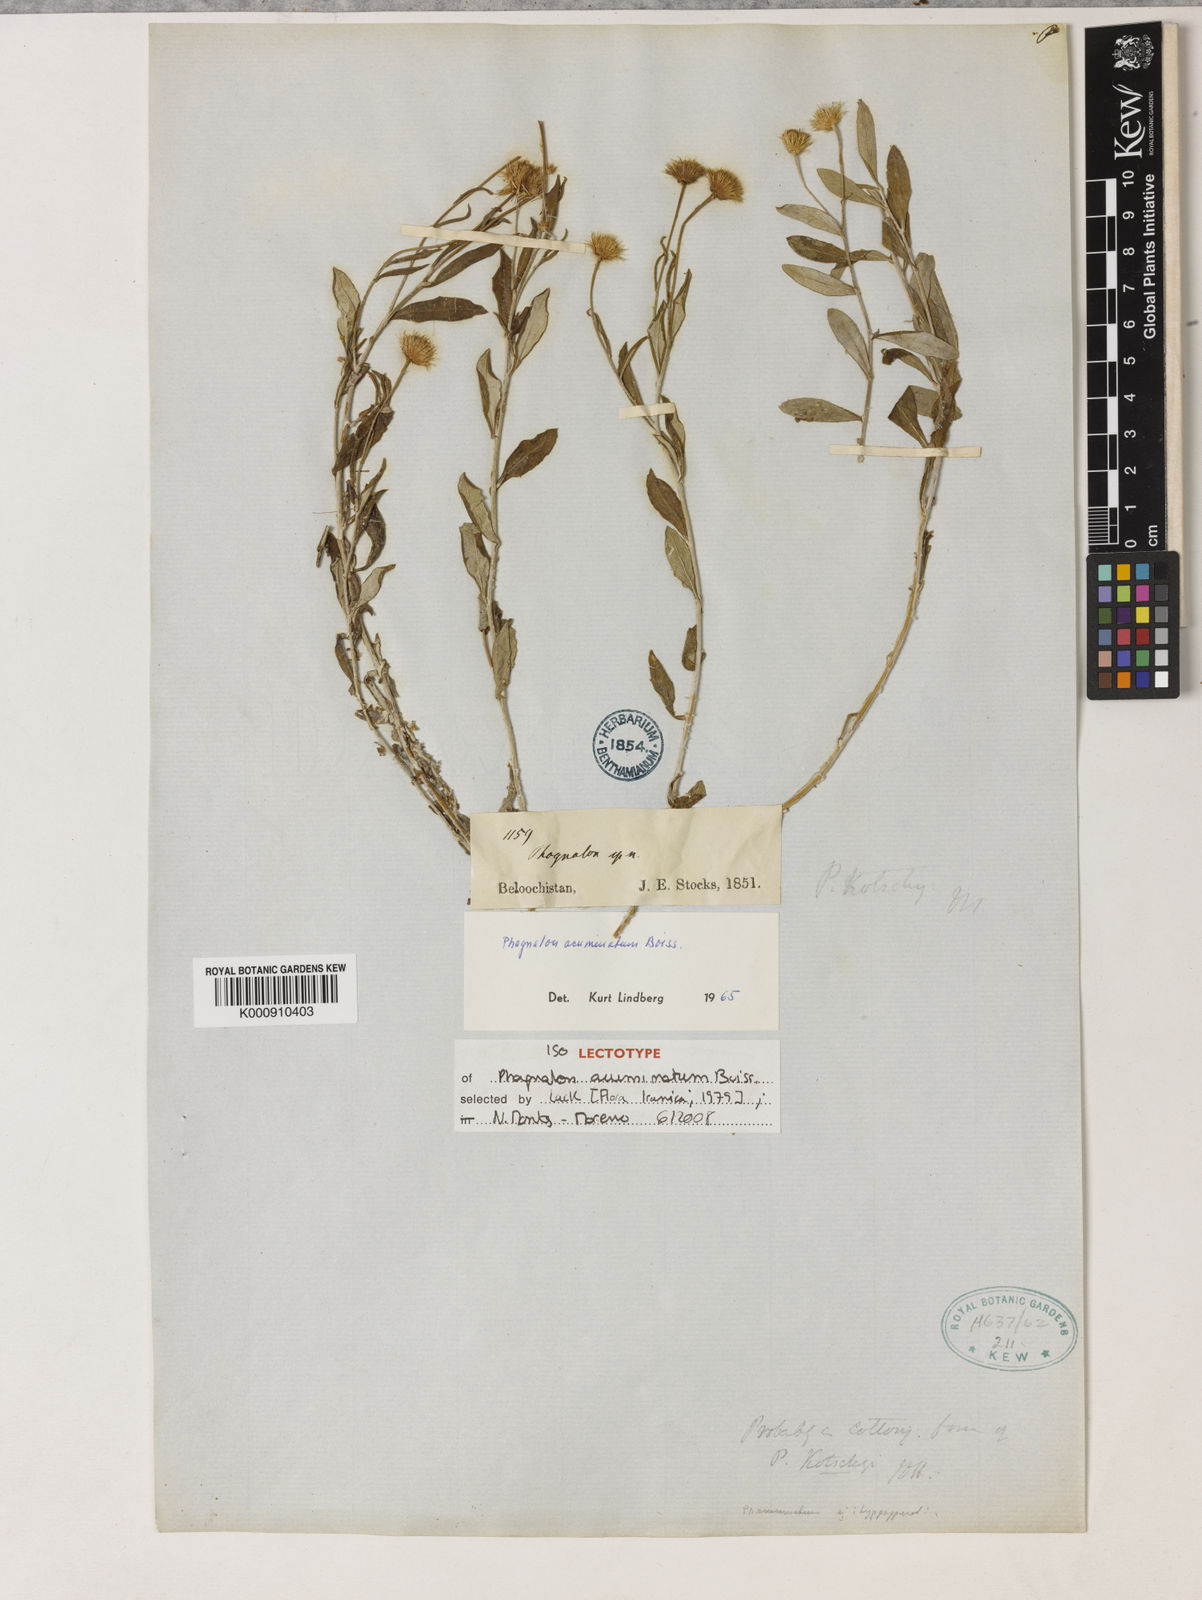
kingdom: Plantae
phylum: Tracheophyta
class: Magnoliopsida
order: Asterales
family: Asteraceae
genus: Phagnalon
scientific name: Phagnalon acuminatum
